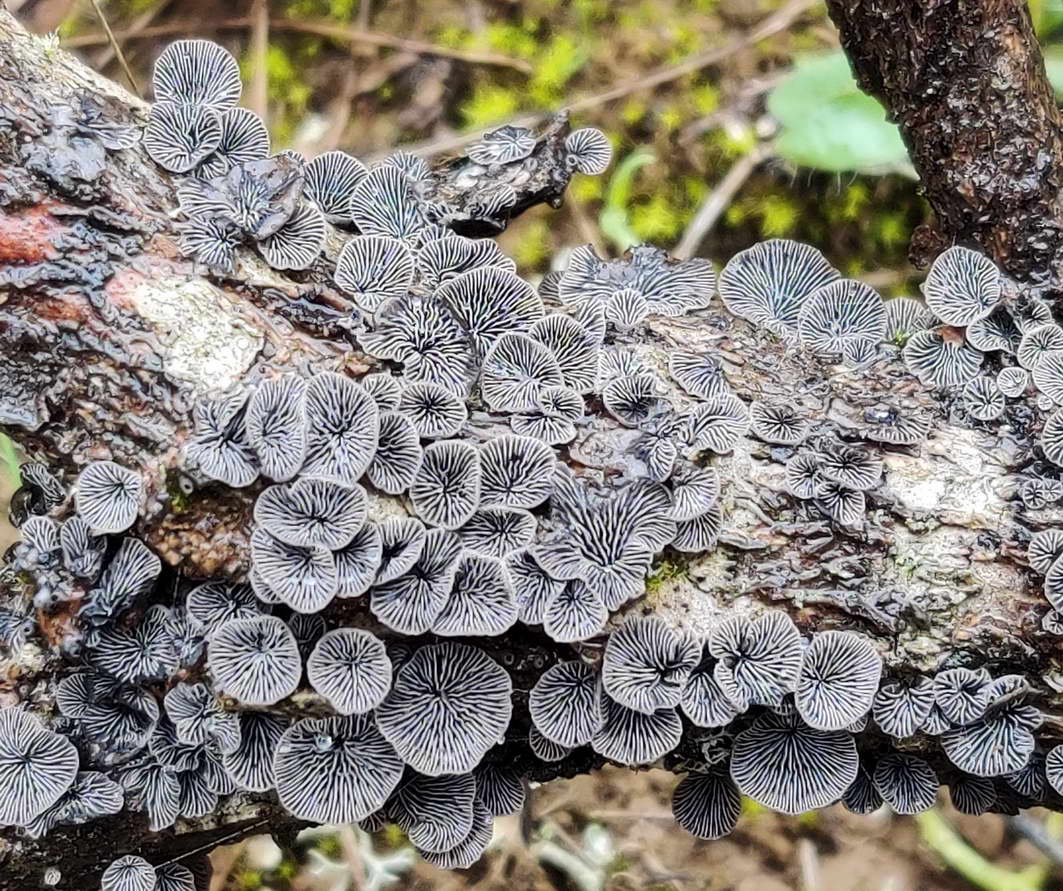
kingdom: Fungi
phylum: Basidiomycota
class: Agaricomycetes
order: Agaricales
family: Pleurotaceae
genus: Resupinatus
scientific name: Resupinatus applicatus
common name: lysfiltet barkhat
